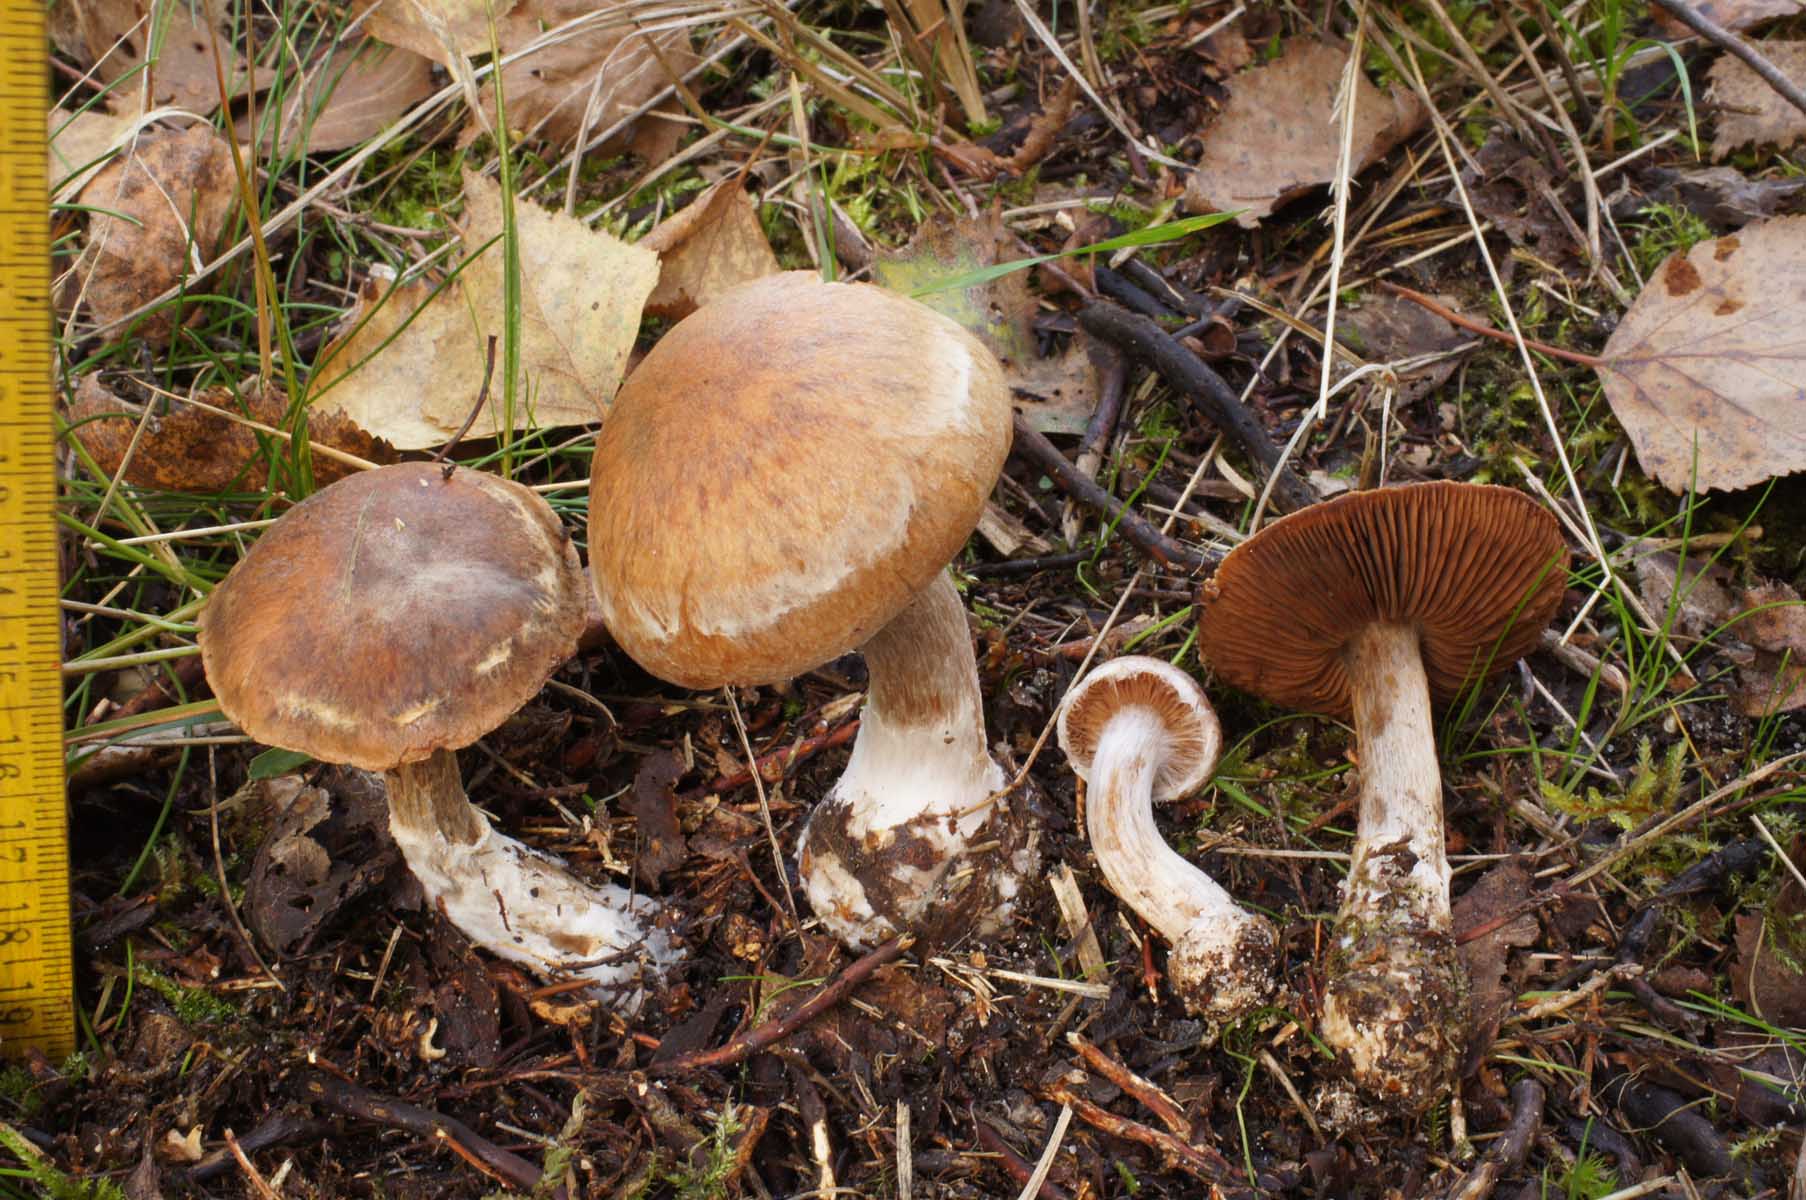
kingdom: Fungi
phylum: Basidiomycota
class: Agaricomycetes
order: Agaricales
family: Cortinariaceae
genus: Cortinarius
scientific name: Cortinarius bivelus
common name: orangebrun slørhat
